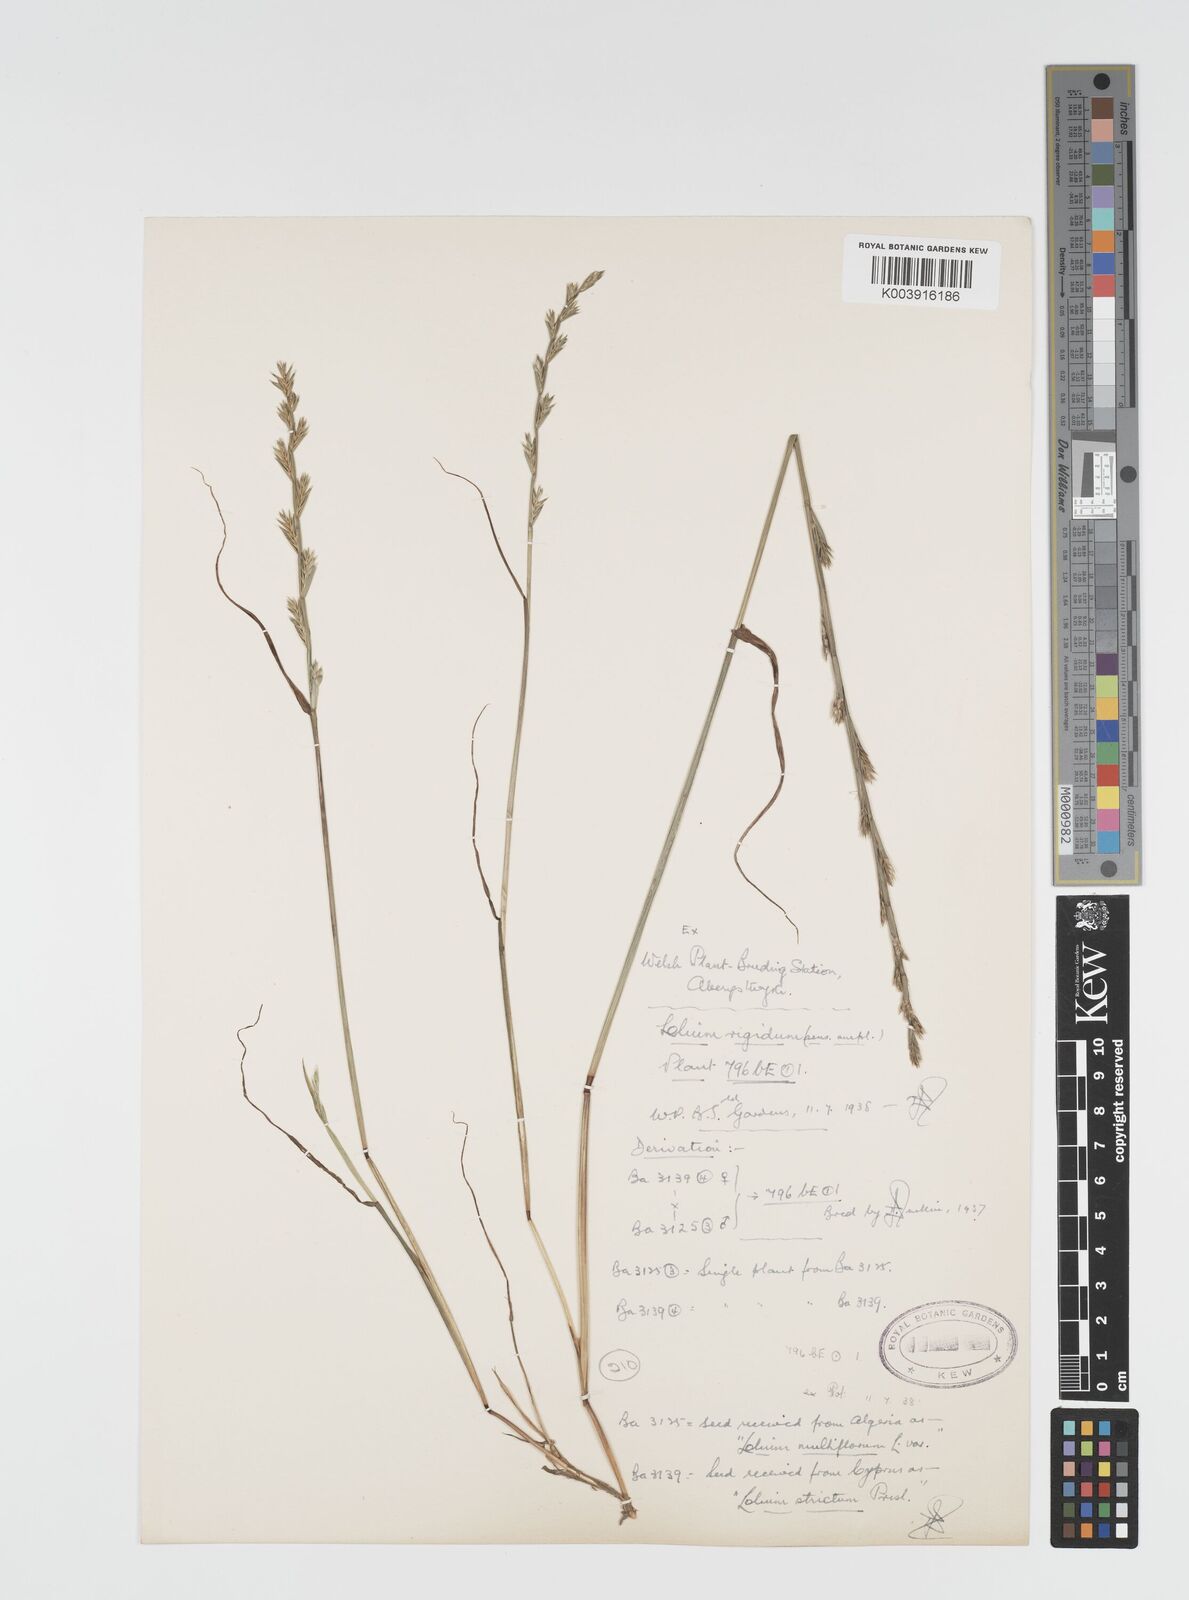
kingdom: Plantae
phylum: Tracheophyta
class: Liliopsida
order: Poales
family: Poaceae
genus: Lolium
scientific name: Lolium rigidum
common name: Wimmera ryegrass
